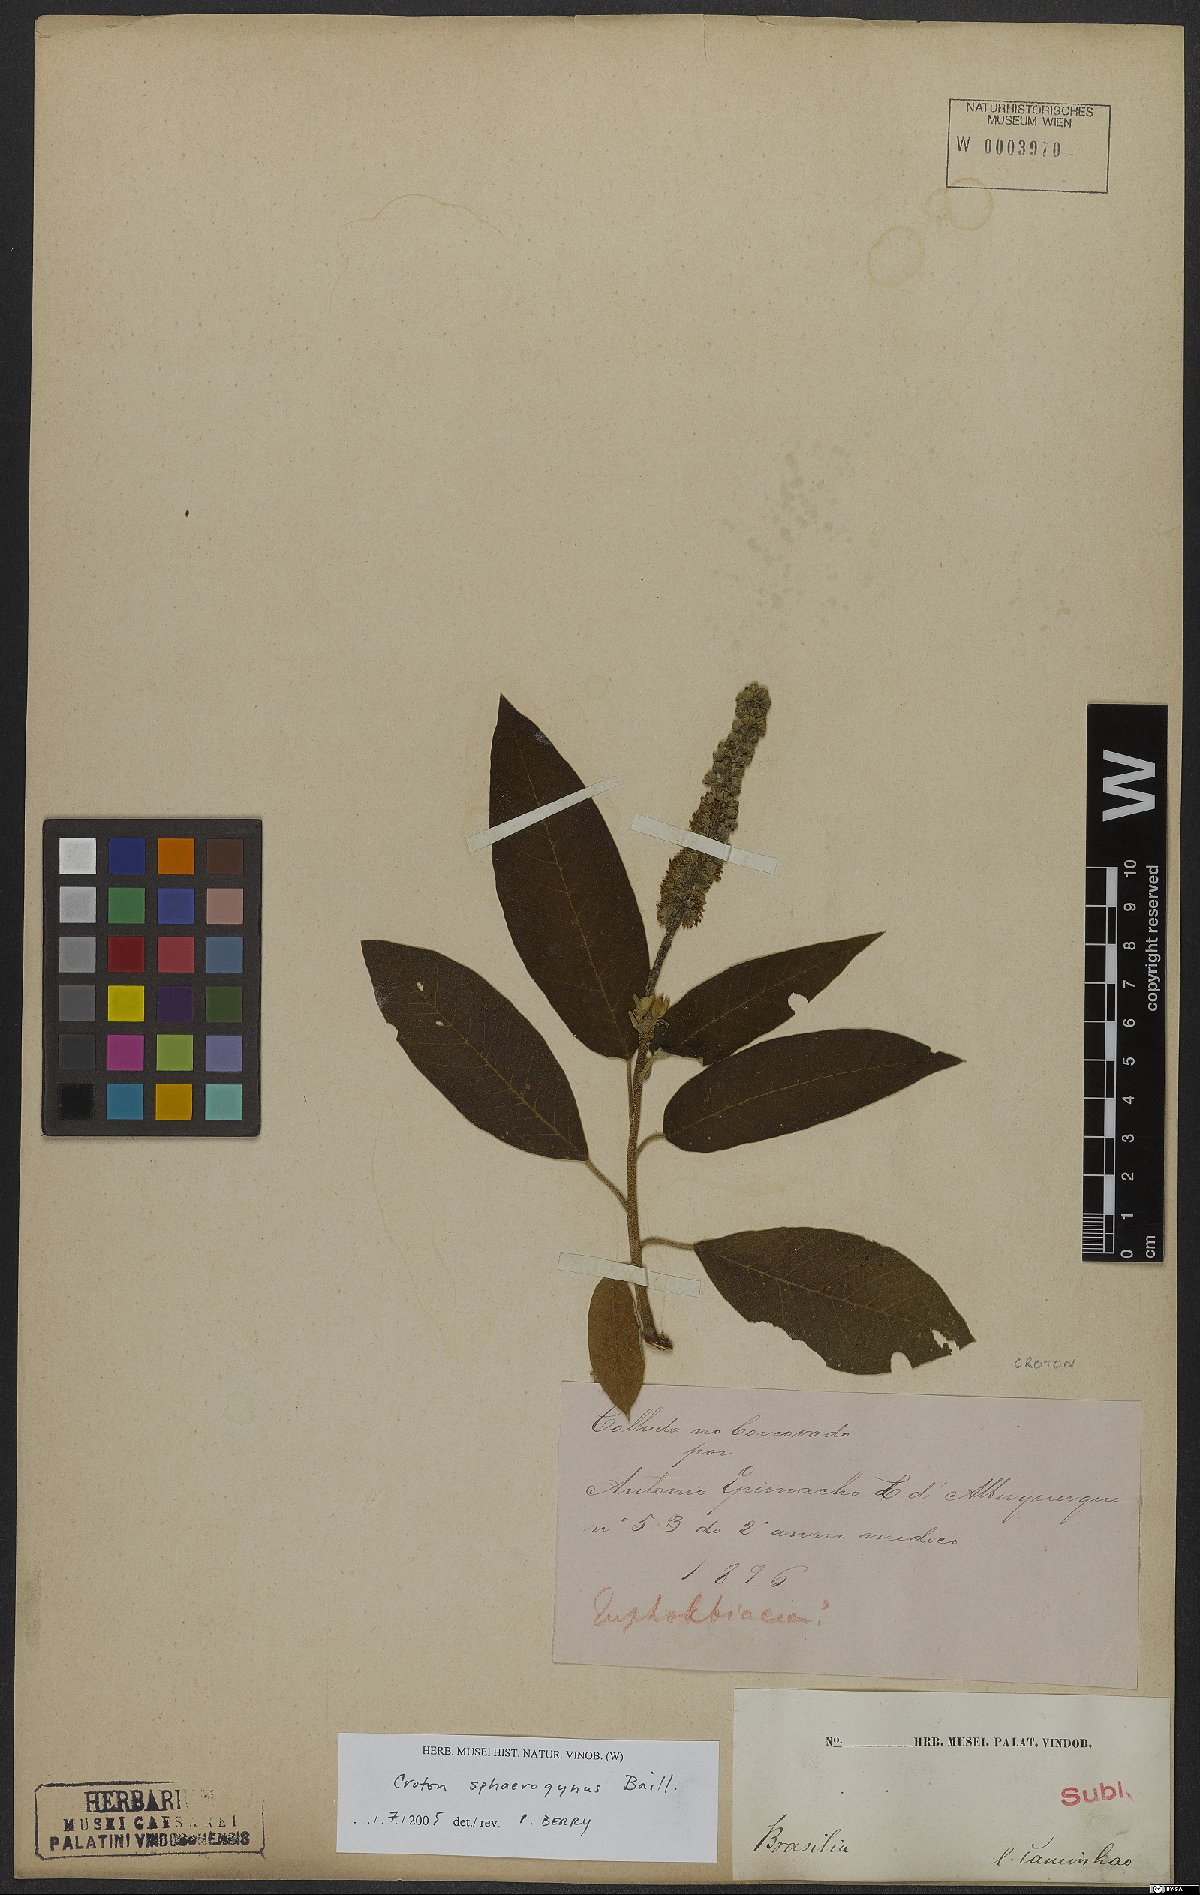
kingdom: Plantae
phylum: Tracheophyta
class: Magnoliopsida
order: Malpighiales
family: Euphorbiaceae
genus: Croton
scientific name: Croton sphaerogynus
